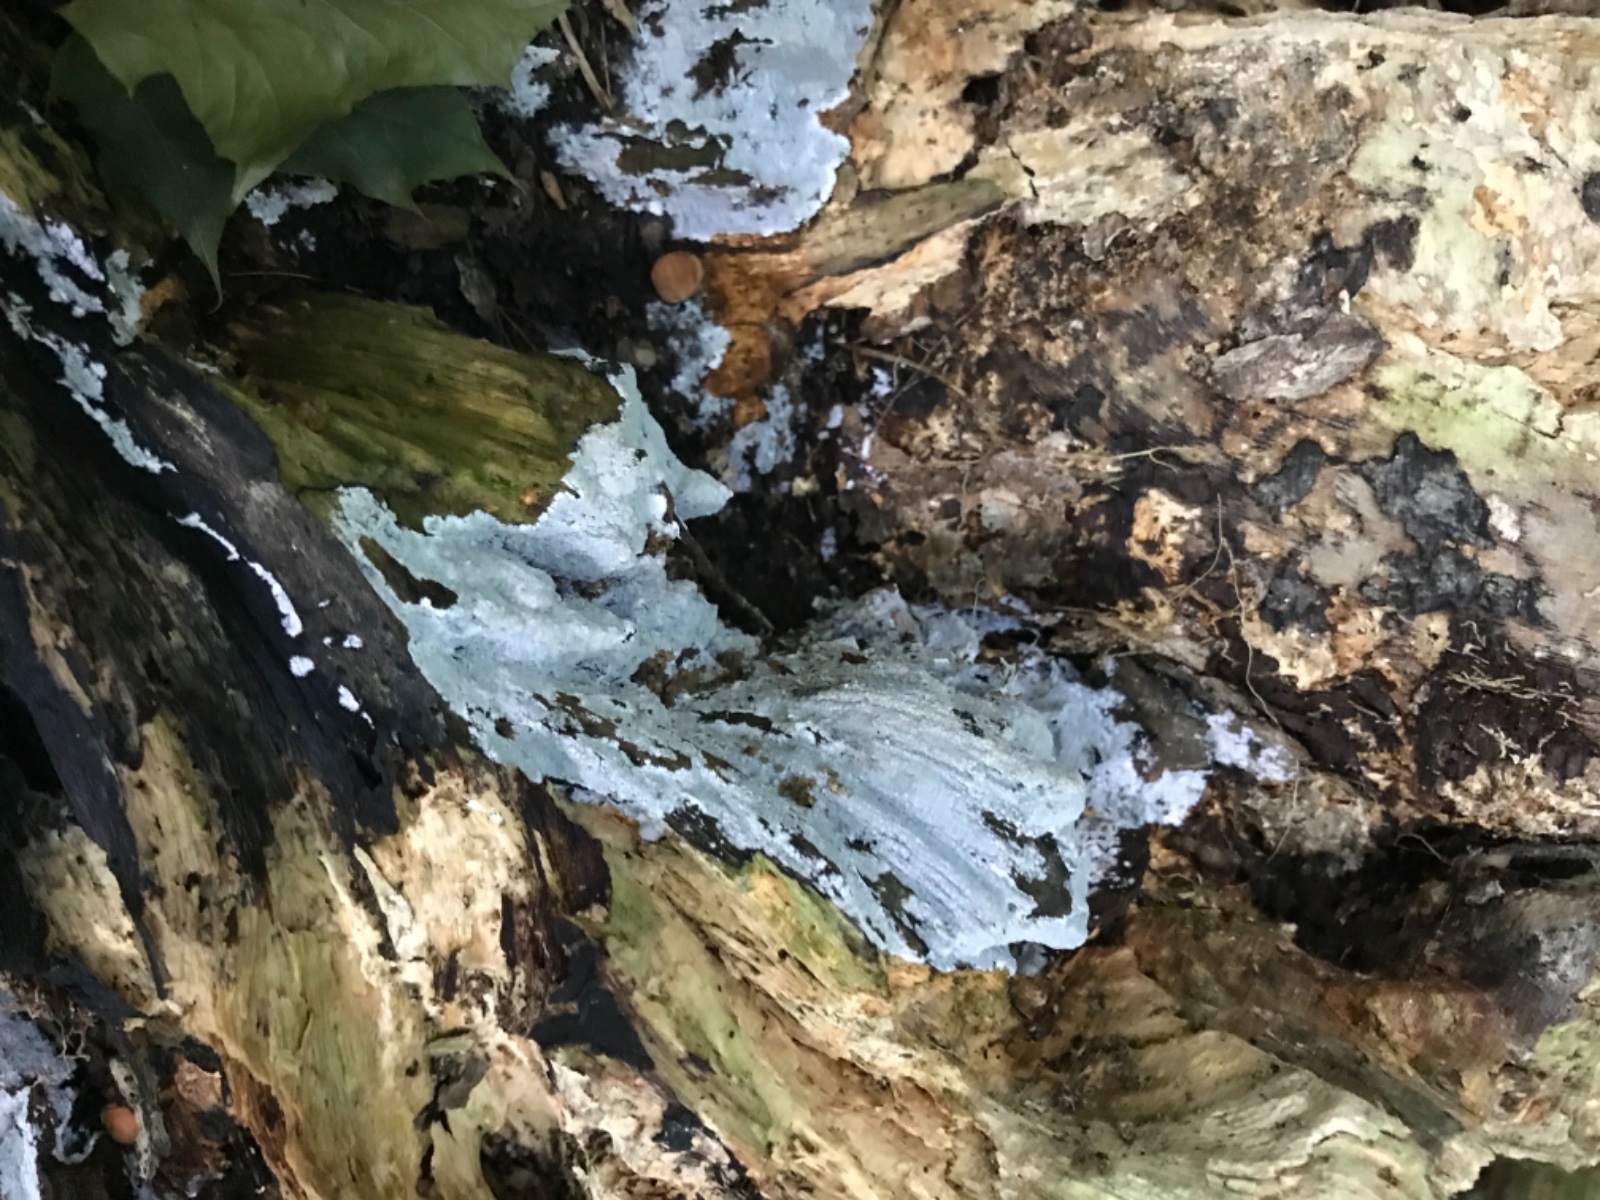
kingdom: Fungi
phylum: Basidiomycota
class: Agaricomycetes
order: Corticiales
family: Corticiaceae
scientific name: Corticiaceae
